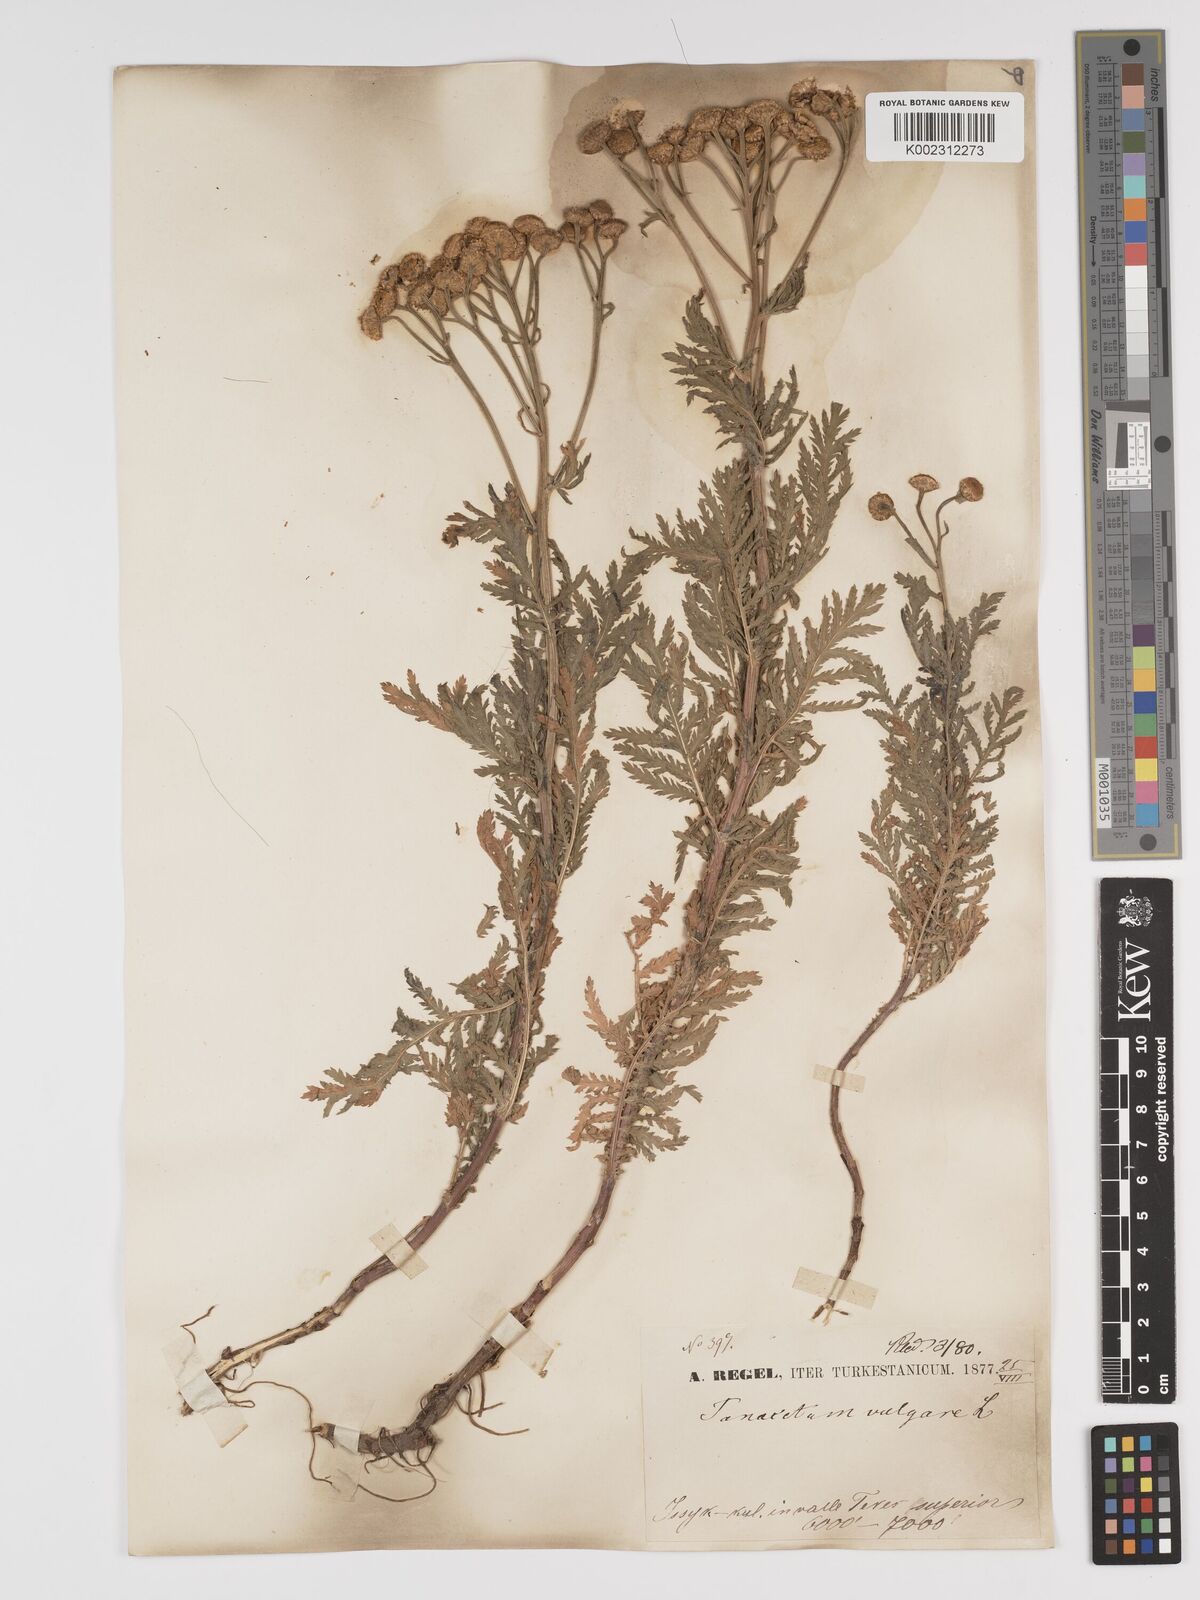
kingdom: Plantae
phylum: Tracheophyta
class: Magnoliopsida
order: Asterales
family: Asteraceae
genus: Tanacetum
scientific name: Tanacetum vulgare
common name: Common tansy
